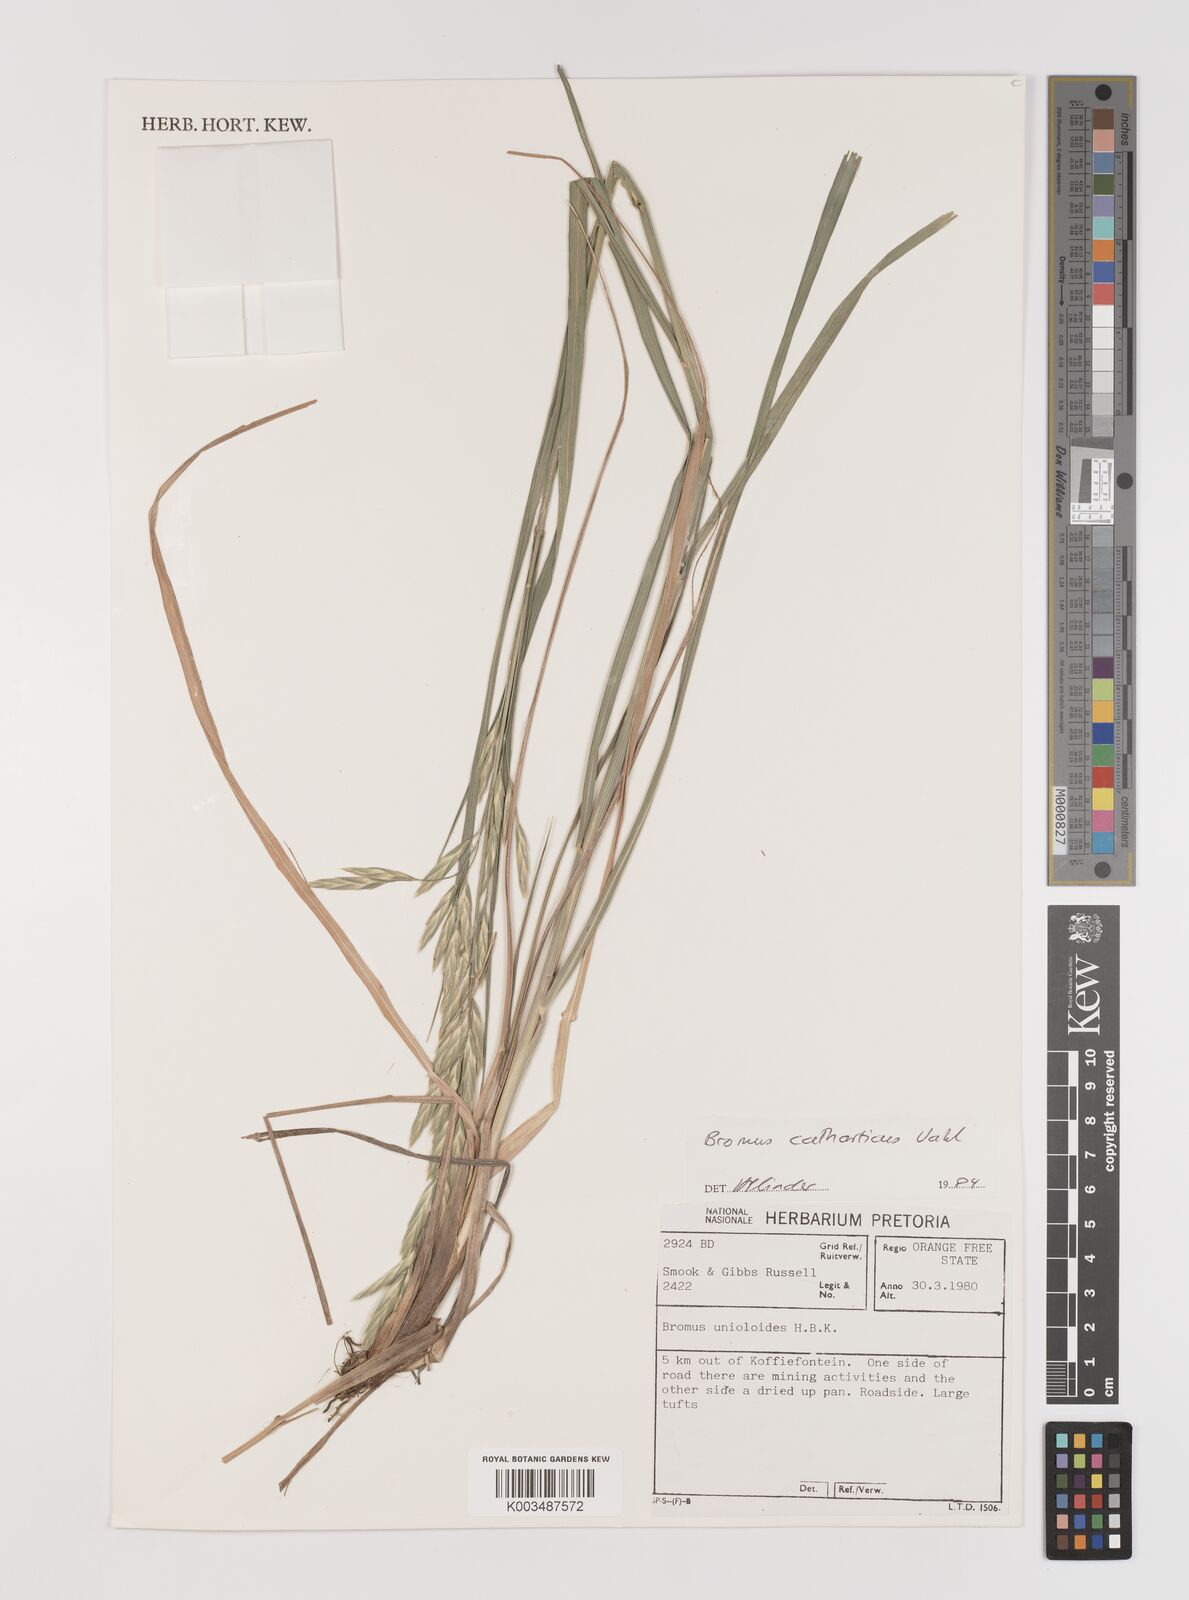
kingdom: Plantae
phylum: Tracheophyta
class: Liliopsida
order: Poales
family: Poaceae
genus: Bromus
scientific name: Bromus catharticus
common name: Rescuegrass
